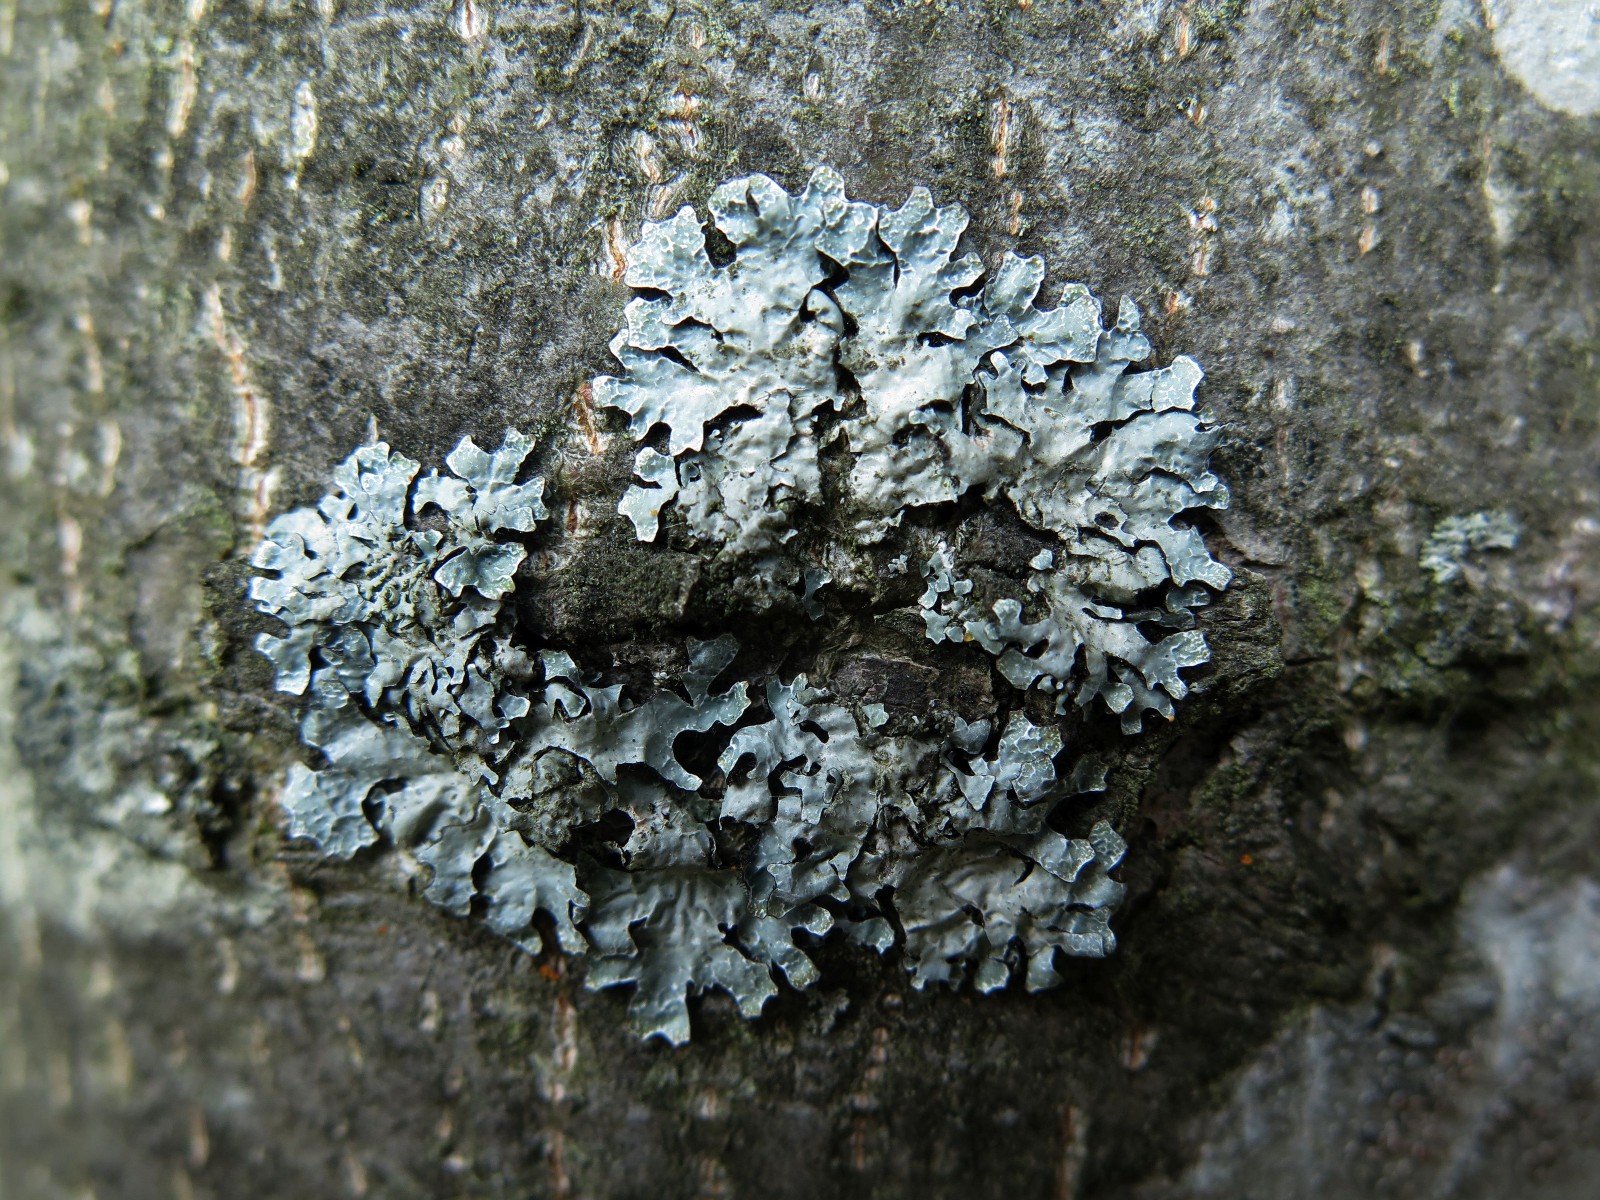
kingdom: Fungi
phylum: Ascomycota
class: Lecanoromycetes
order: Lecanorales
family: Parmeliaceae
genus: Parmelia
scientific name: Parmelia sulcata
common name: rynket skållav
